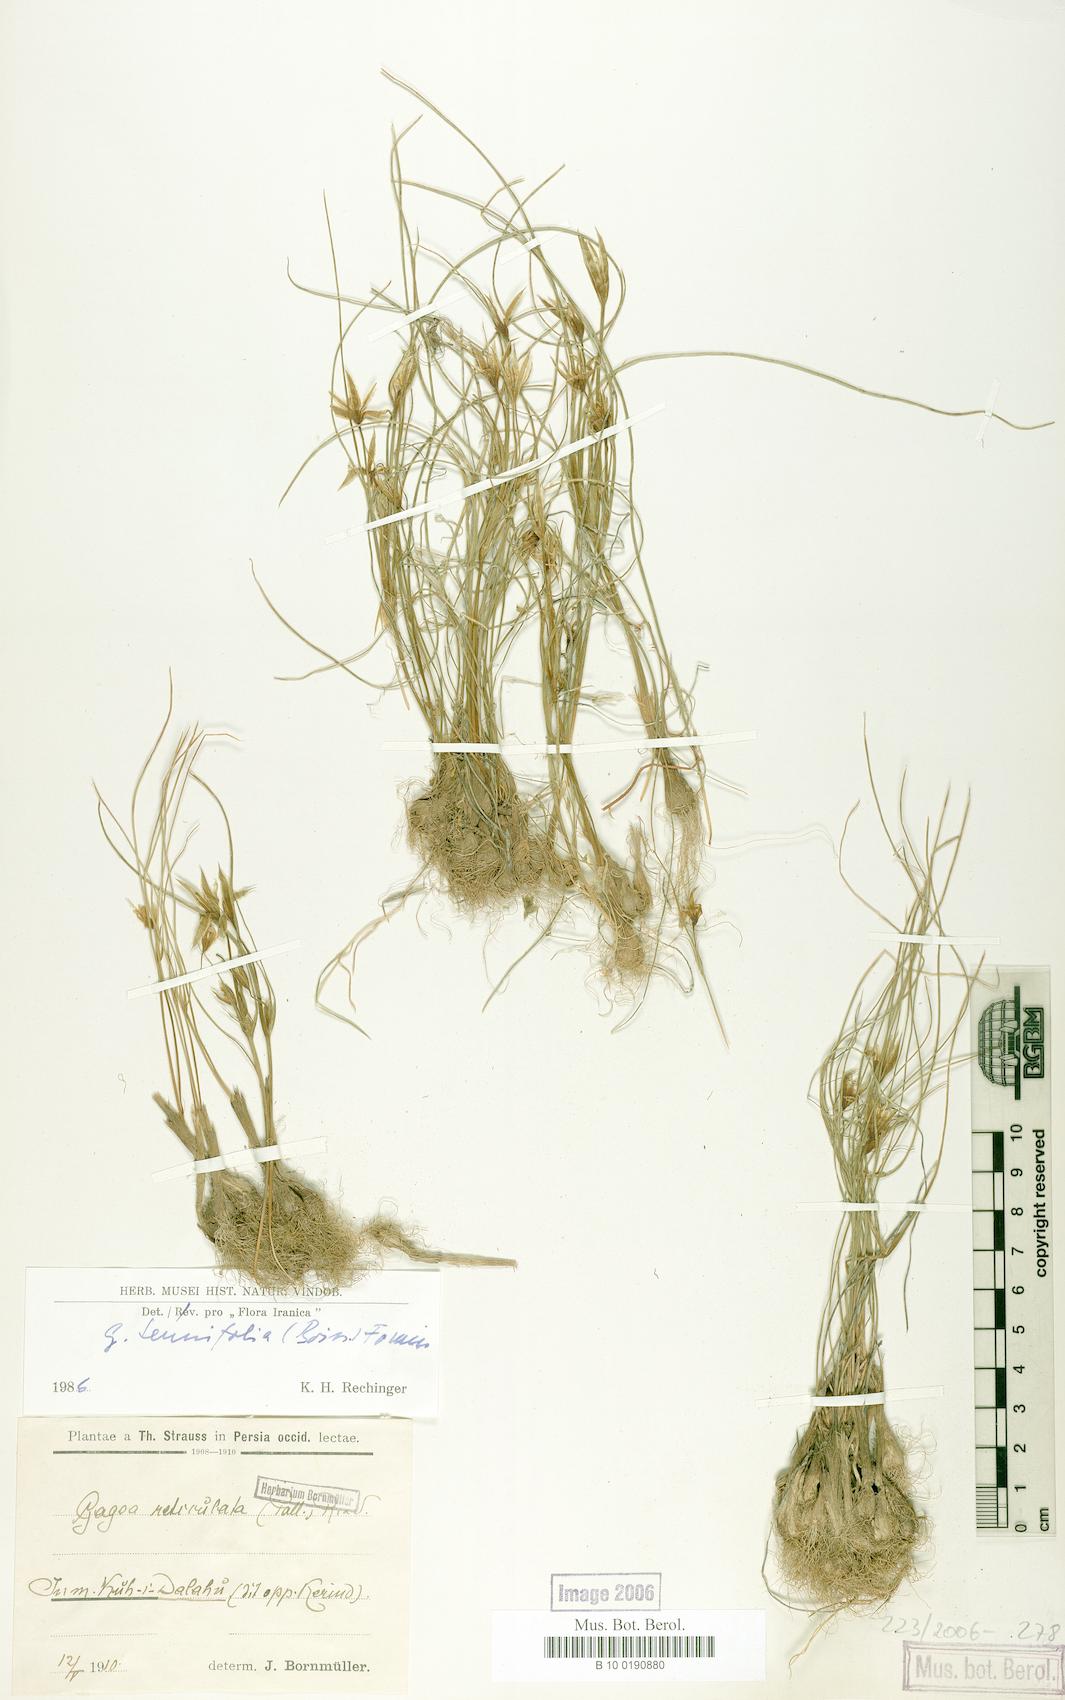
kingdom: Plantae
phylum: Tracheophyta
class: Liliopsida
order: Liliales
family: Liliaceae
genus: Gagea
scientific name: Gagea reticulata
